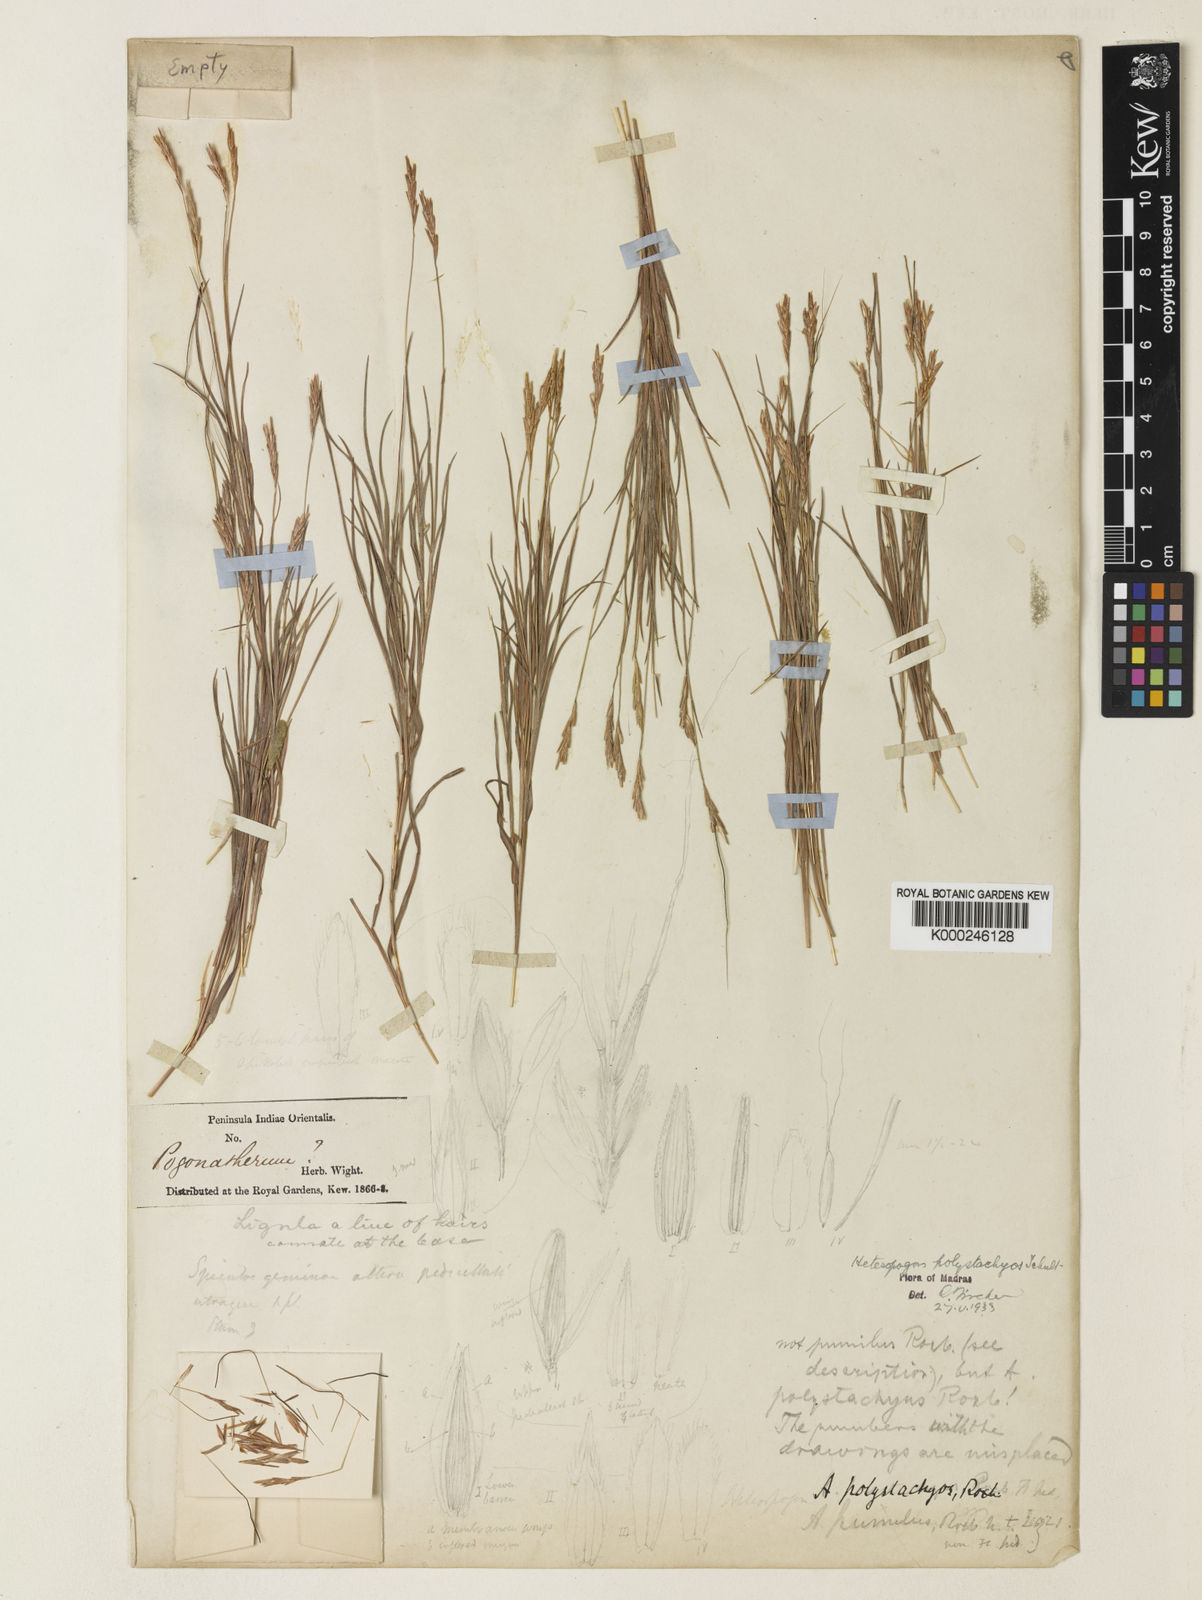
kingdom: Plantae
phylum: Tracheophyta
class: Liliopsida
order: Poales
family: Poaceae
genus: Heteropogon
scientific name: Heteropogon
